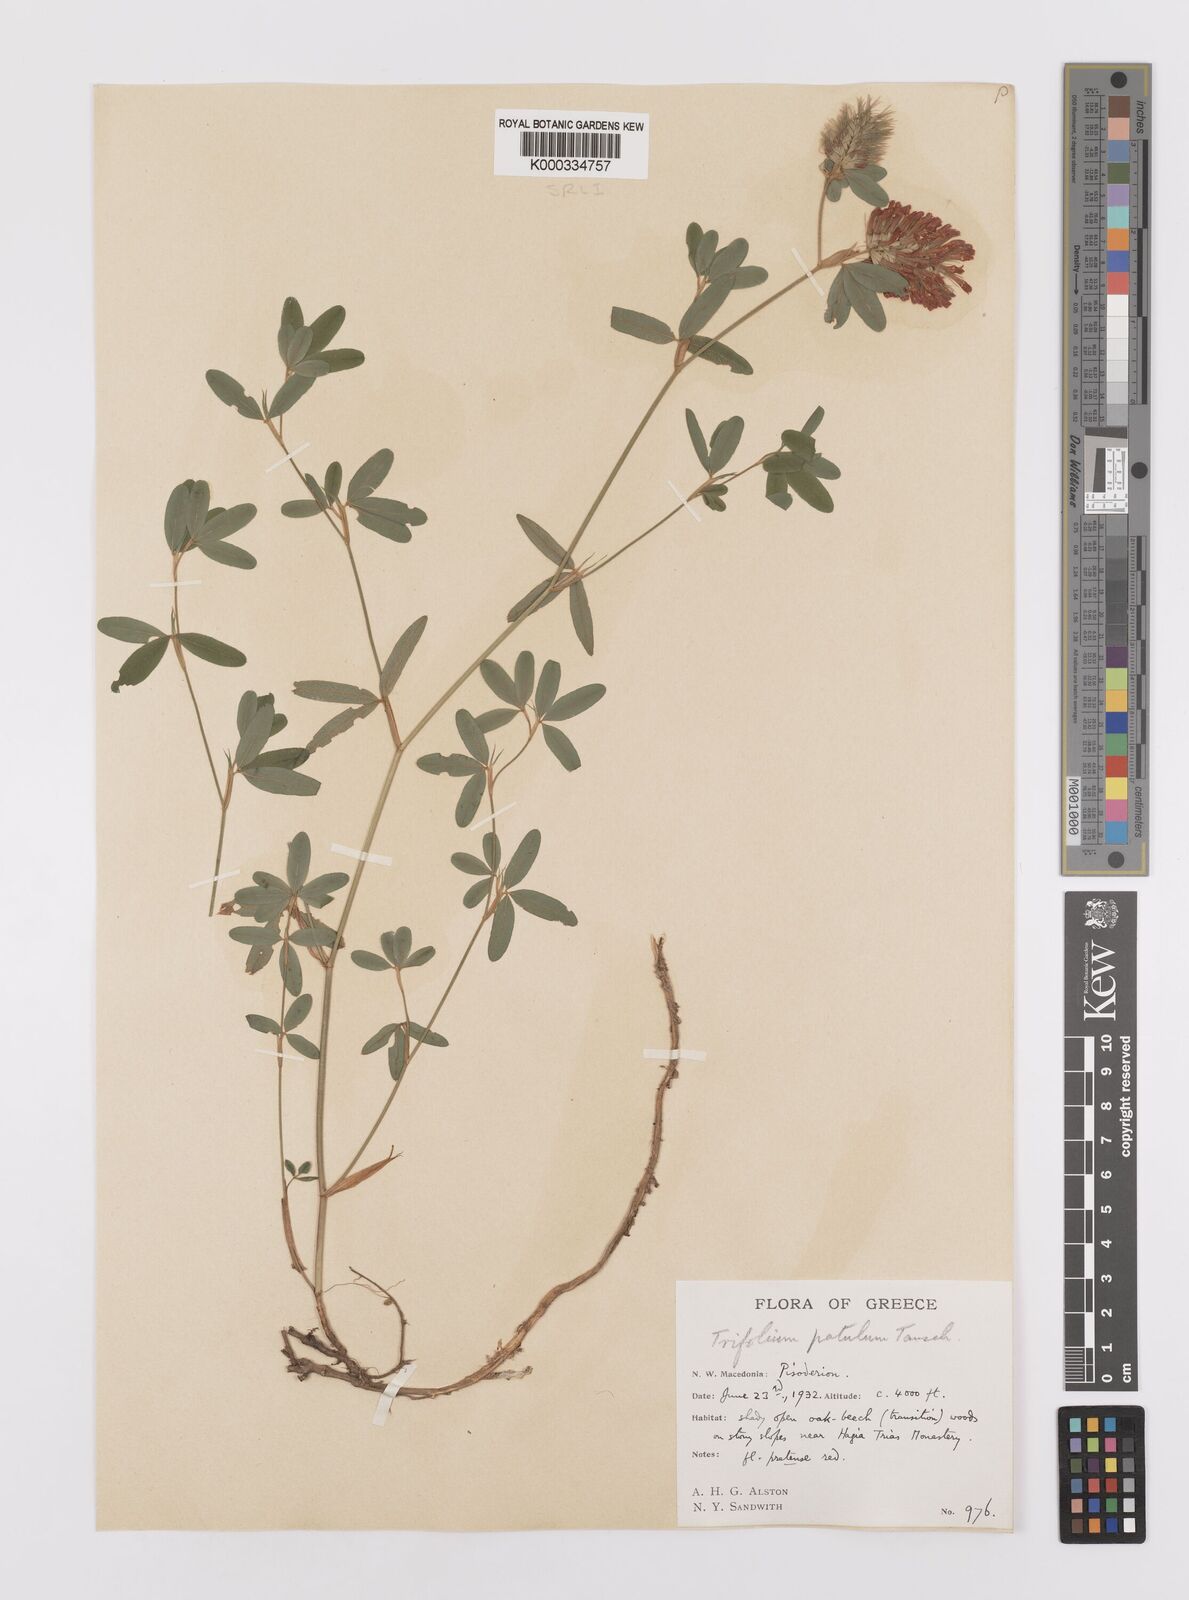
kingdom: Plantae
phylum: Tracheophyta
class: Magnoliopsida
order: Fabales
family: Fabaceae
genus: Trifolium
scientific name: Trifolium patulum
